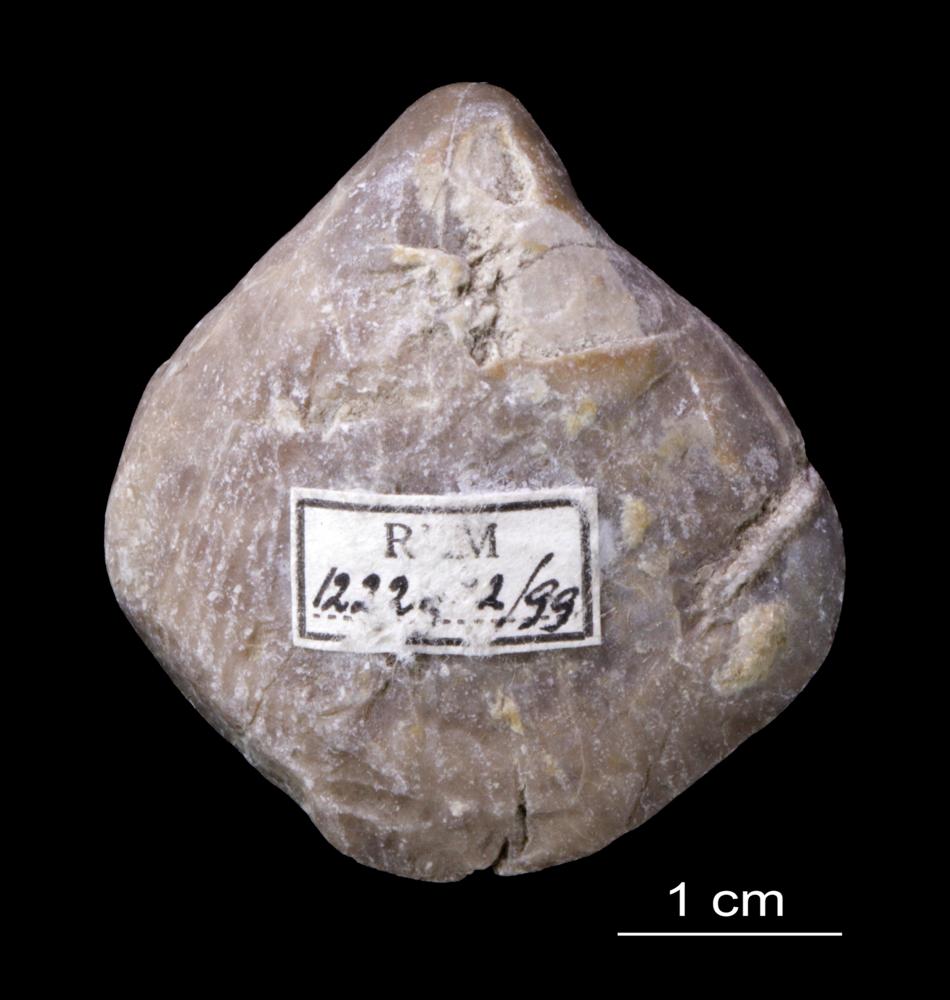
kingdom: Animalia
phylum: Brachiopoda
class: Rhynchonellata
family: Pentameridae
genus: Rhipidium
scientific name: Rhipidium Pentamerus tenuistratus
